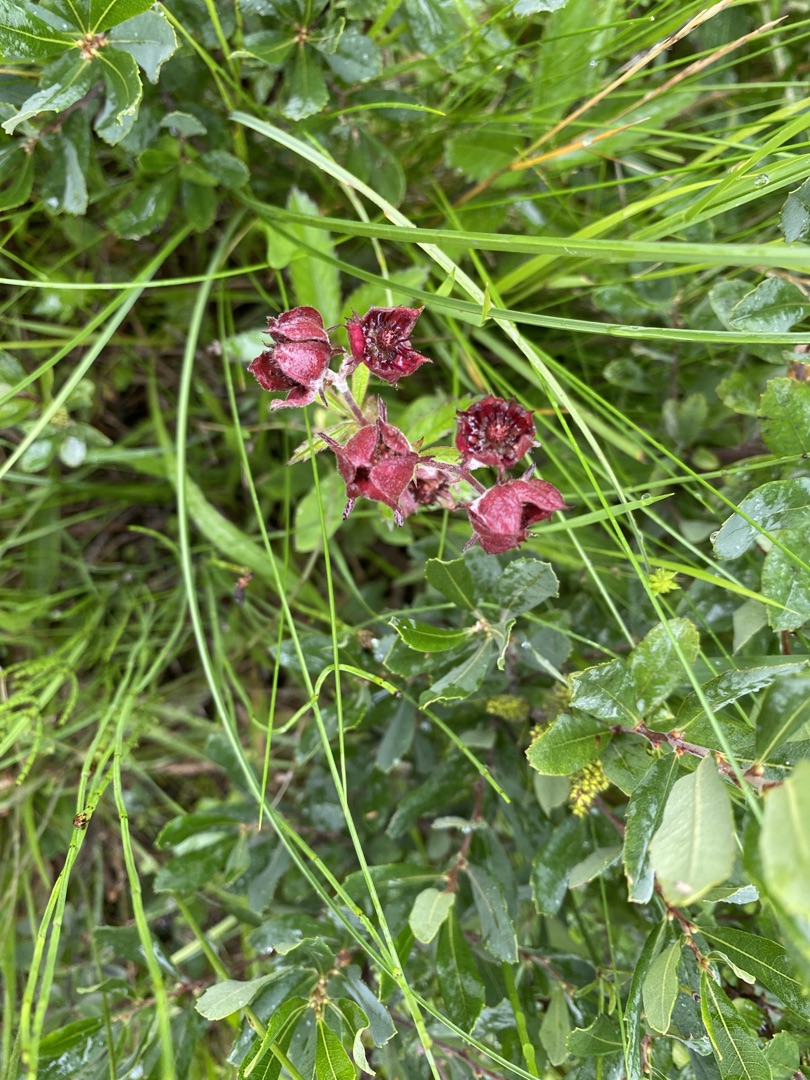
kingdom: Plantae
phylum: Tracheophyta
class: Magnoliopsida
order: Rosales
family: Rosaceae
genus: Comarum
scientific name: Comarum palustre
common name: Kragefod
